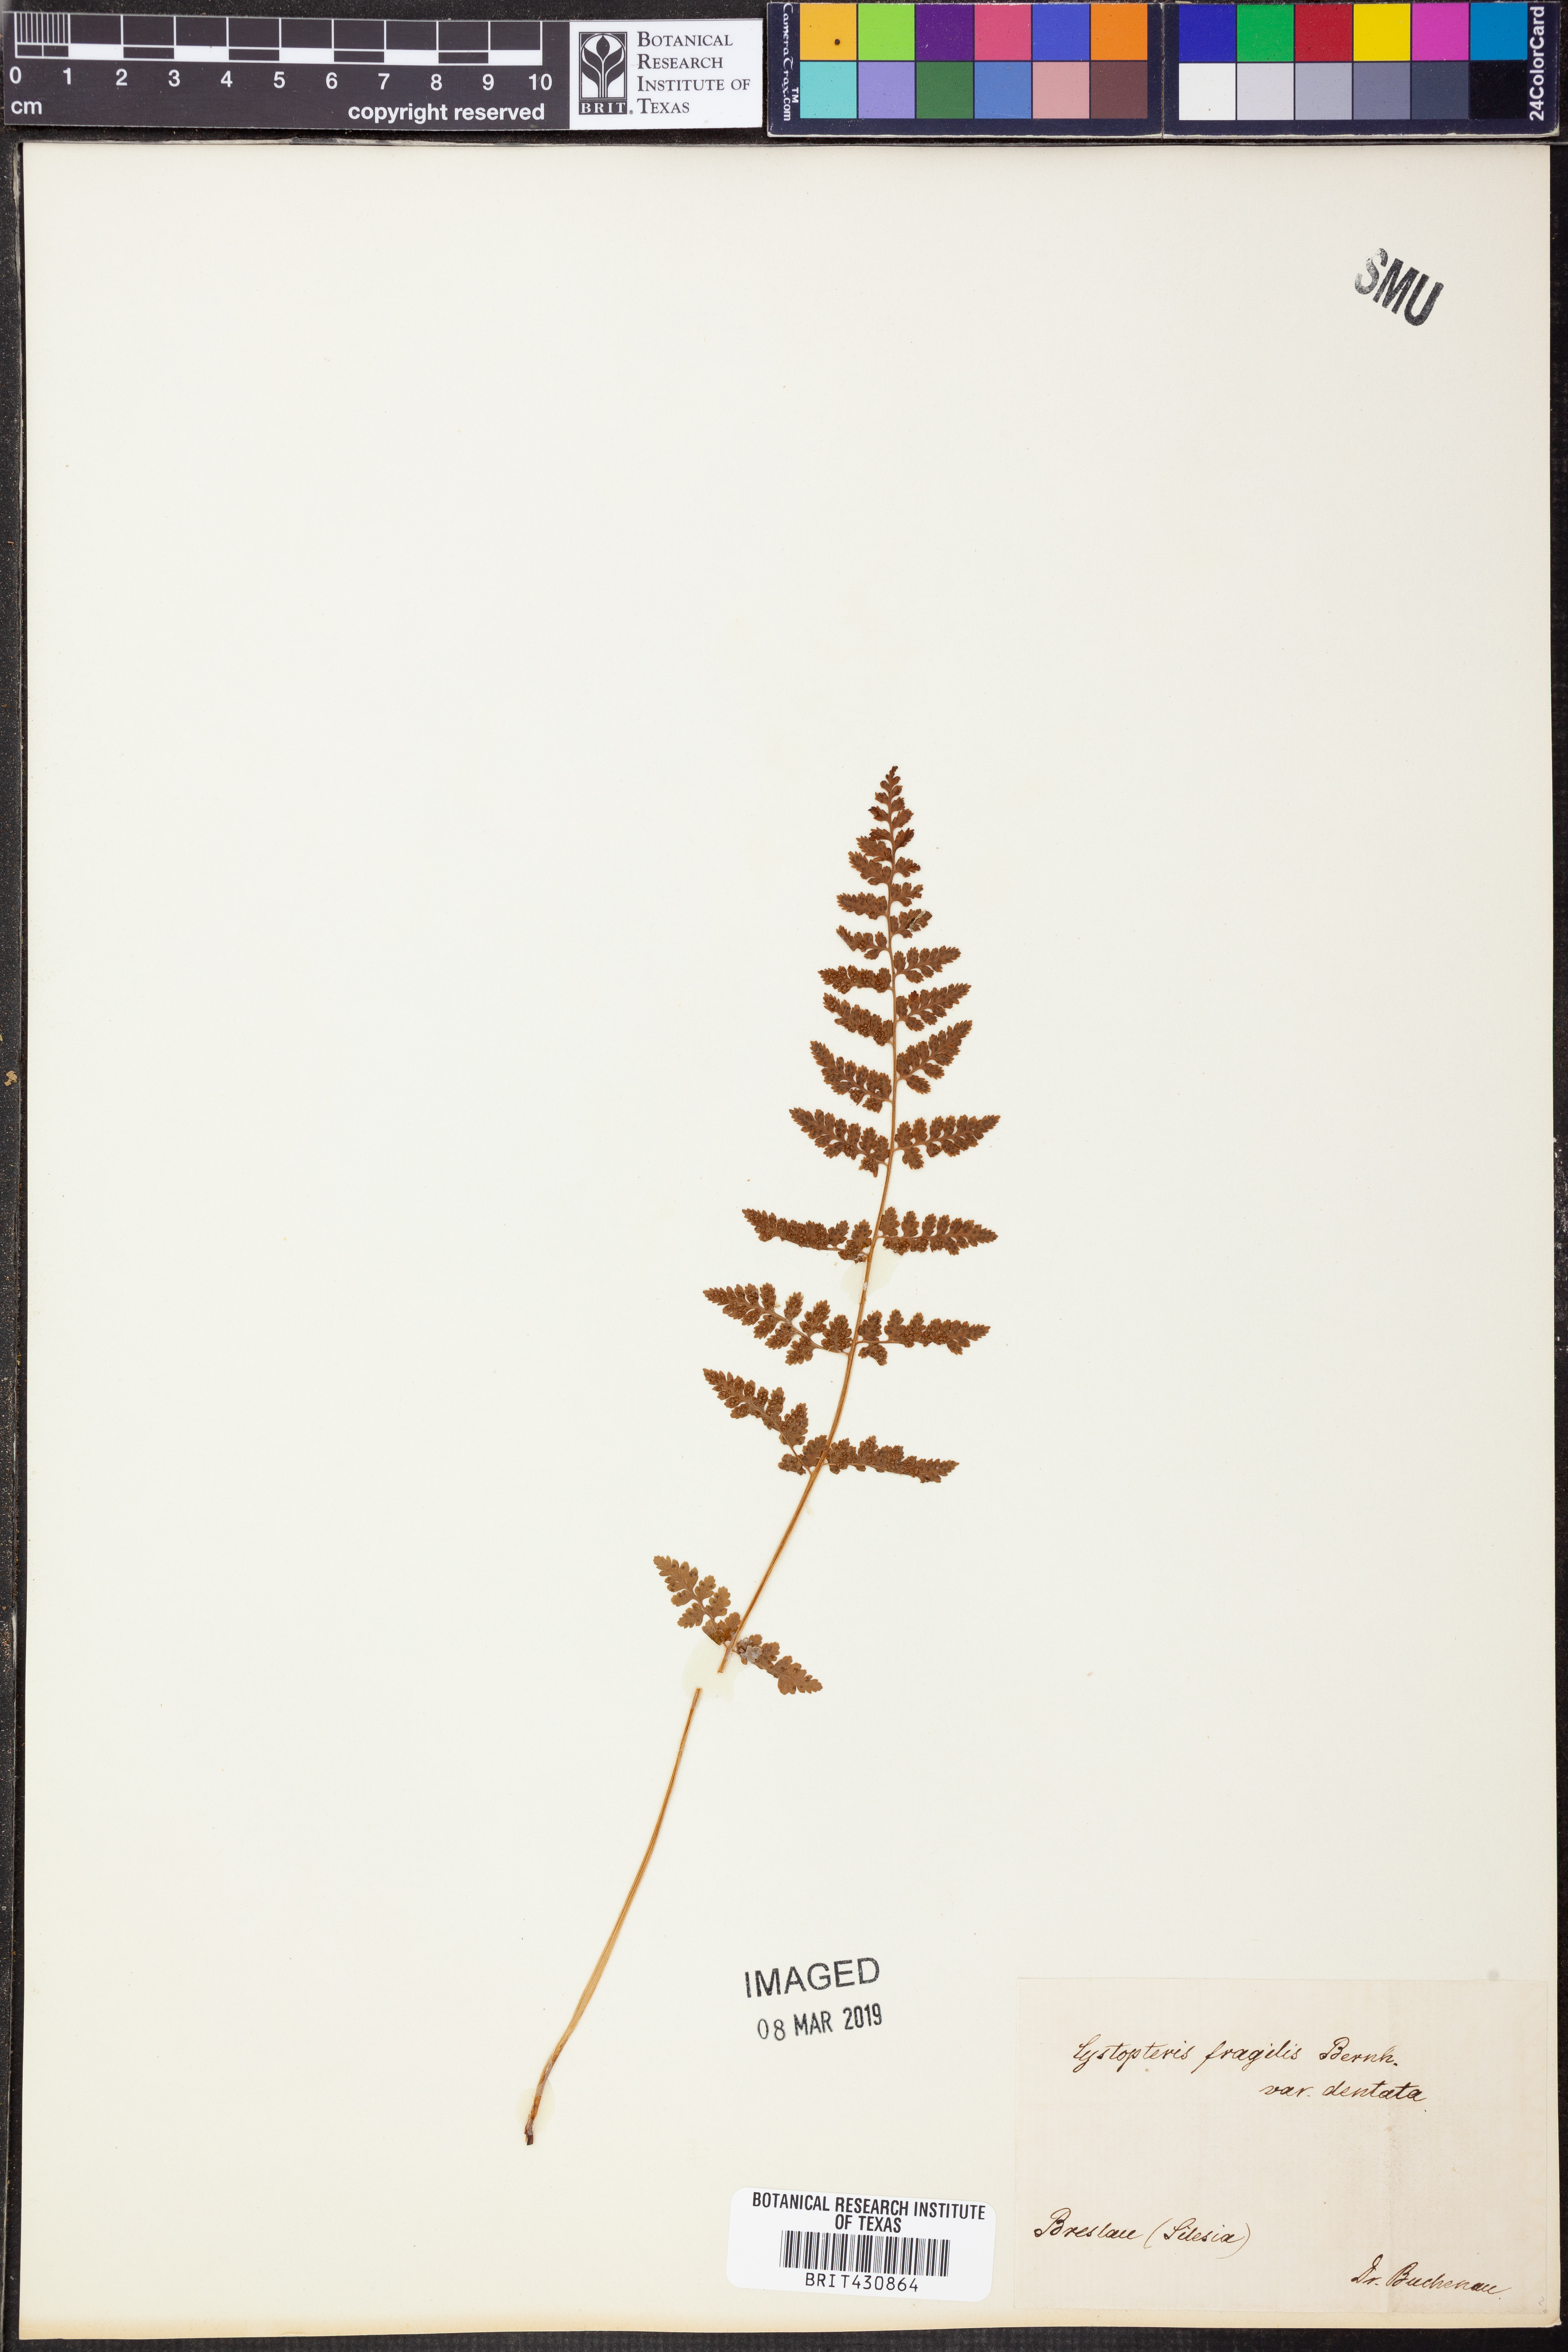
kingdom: Plantae
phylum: Tracheophyta
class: Polypodiopsida
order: Polypodiales
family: Cystopteridaceae
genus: Cystopteris
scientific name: Cystopteris fragilis
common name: Brittle bladder fern
